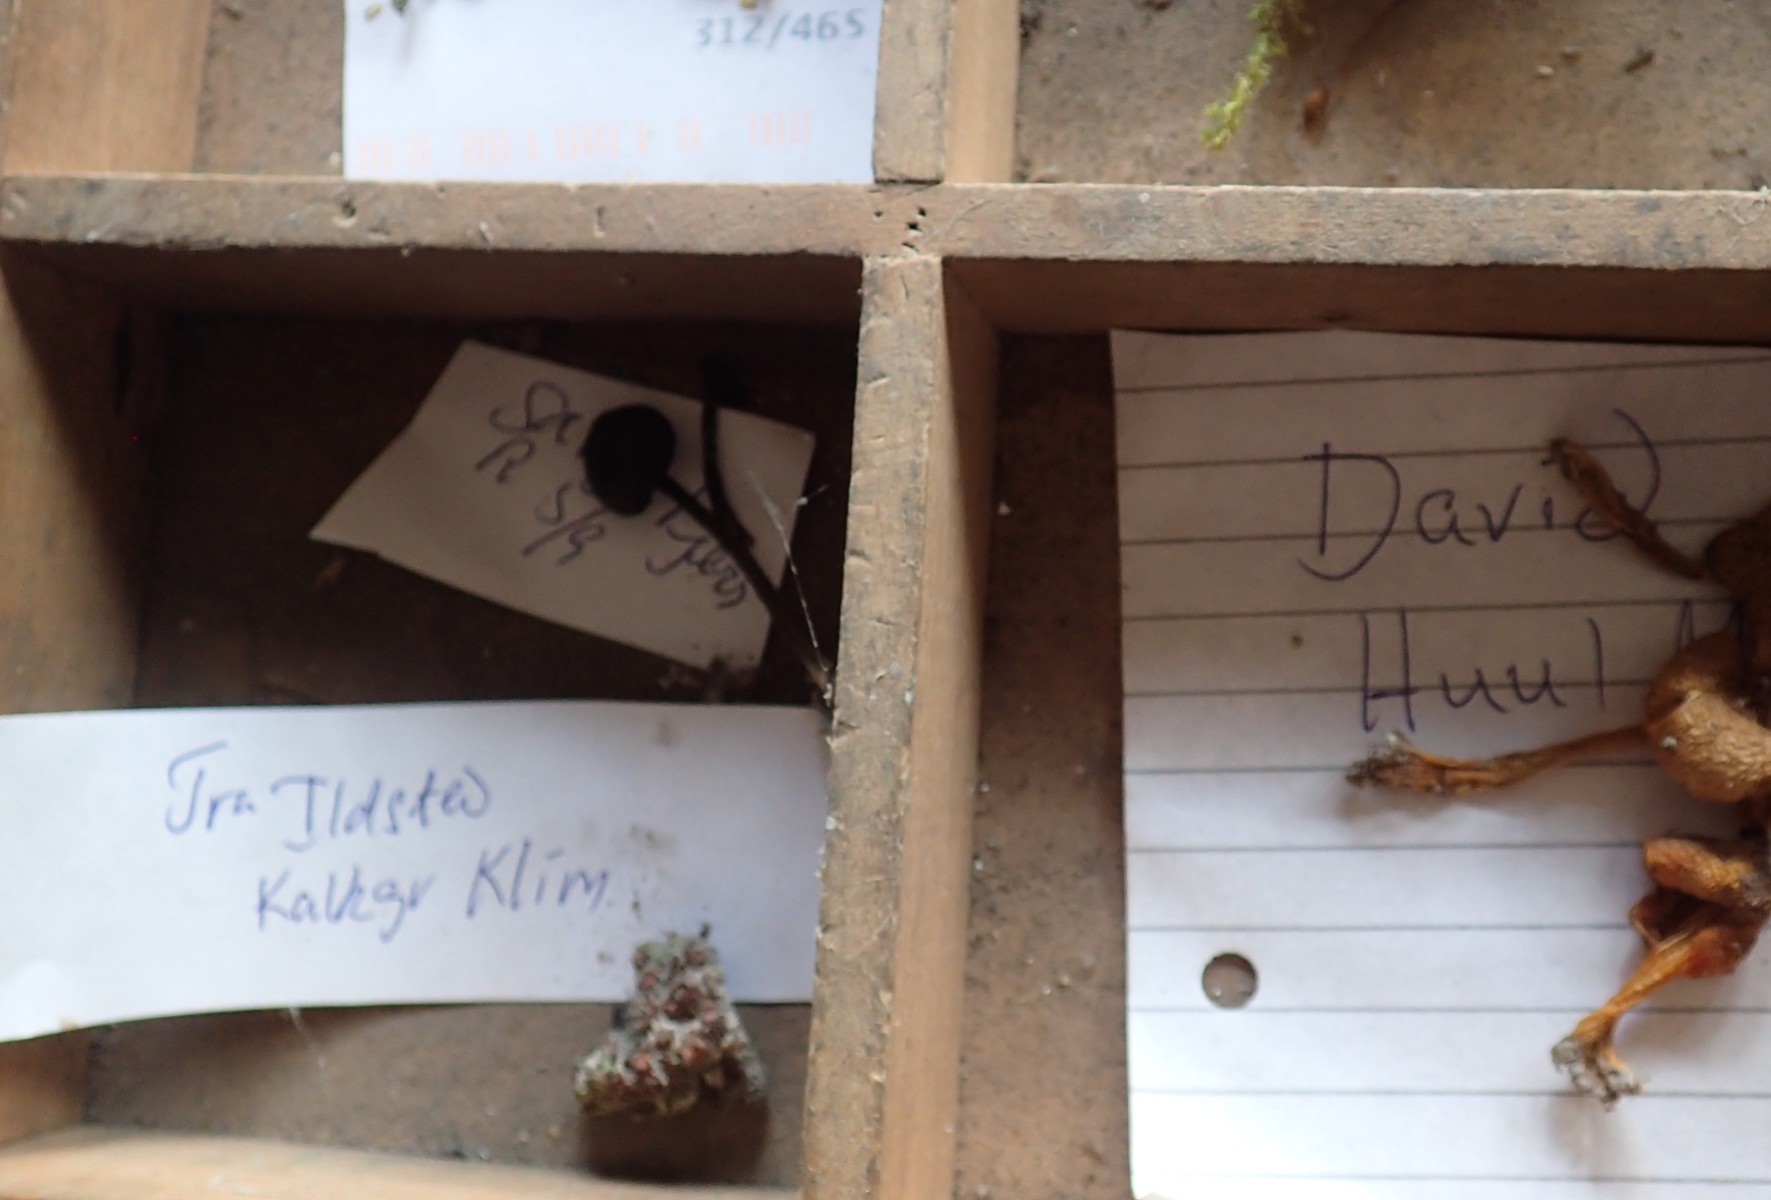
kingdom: Fungi
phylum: Ascomycota
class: Pezizomycetes
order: Pezizales
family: Pyronemataceae
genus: Anthracobia
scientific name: Anthracobia macrocystis
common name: orange ildbæger
